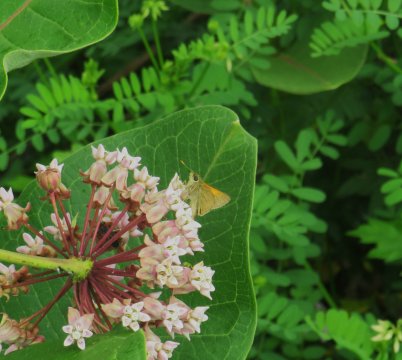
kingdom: Animalia
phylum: Arthropoda
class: Insecta
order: Lepidoptera
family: Hesperiidae
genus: Polites
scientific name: Polites themistocles
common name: Tawny-edged Skipper
